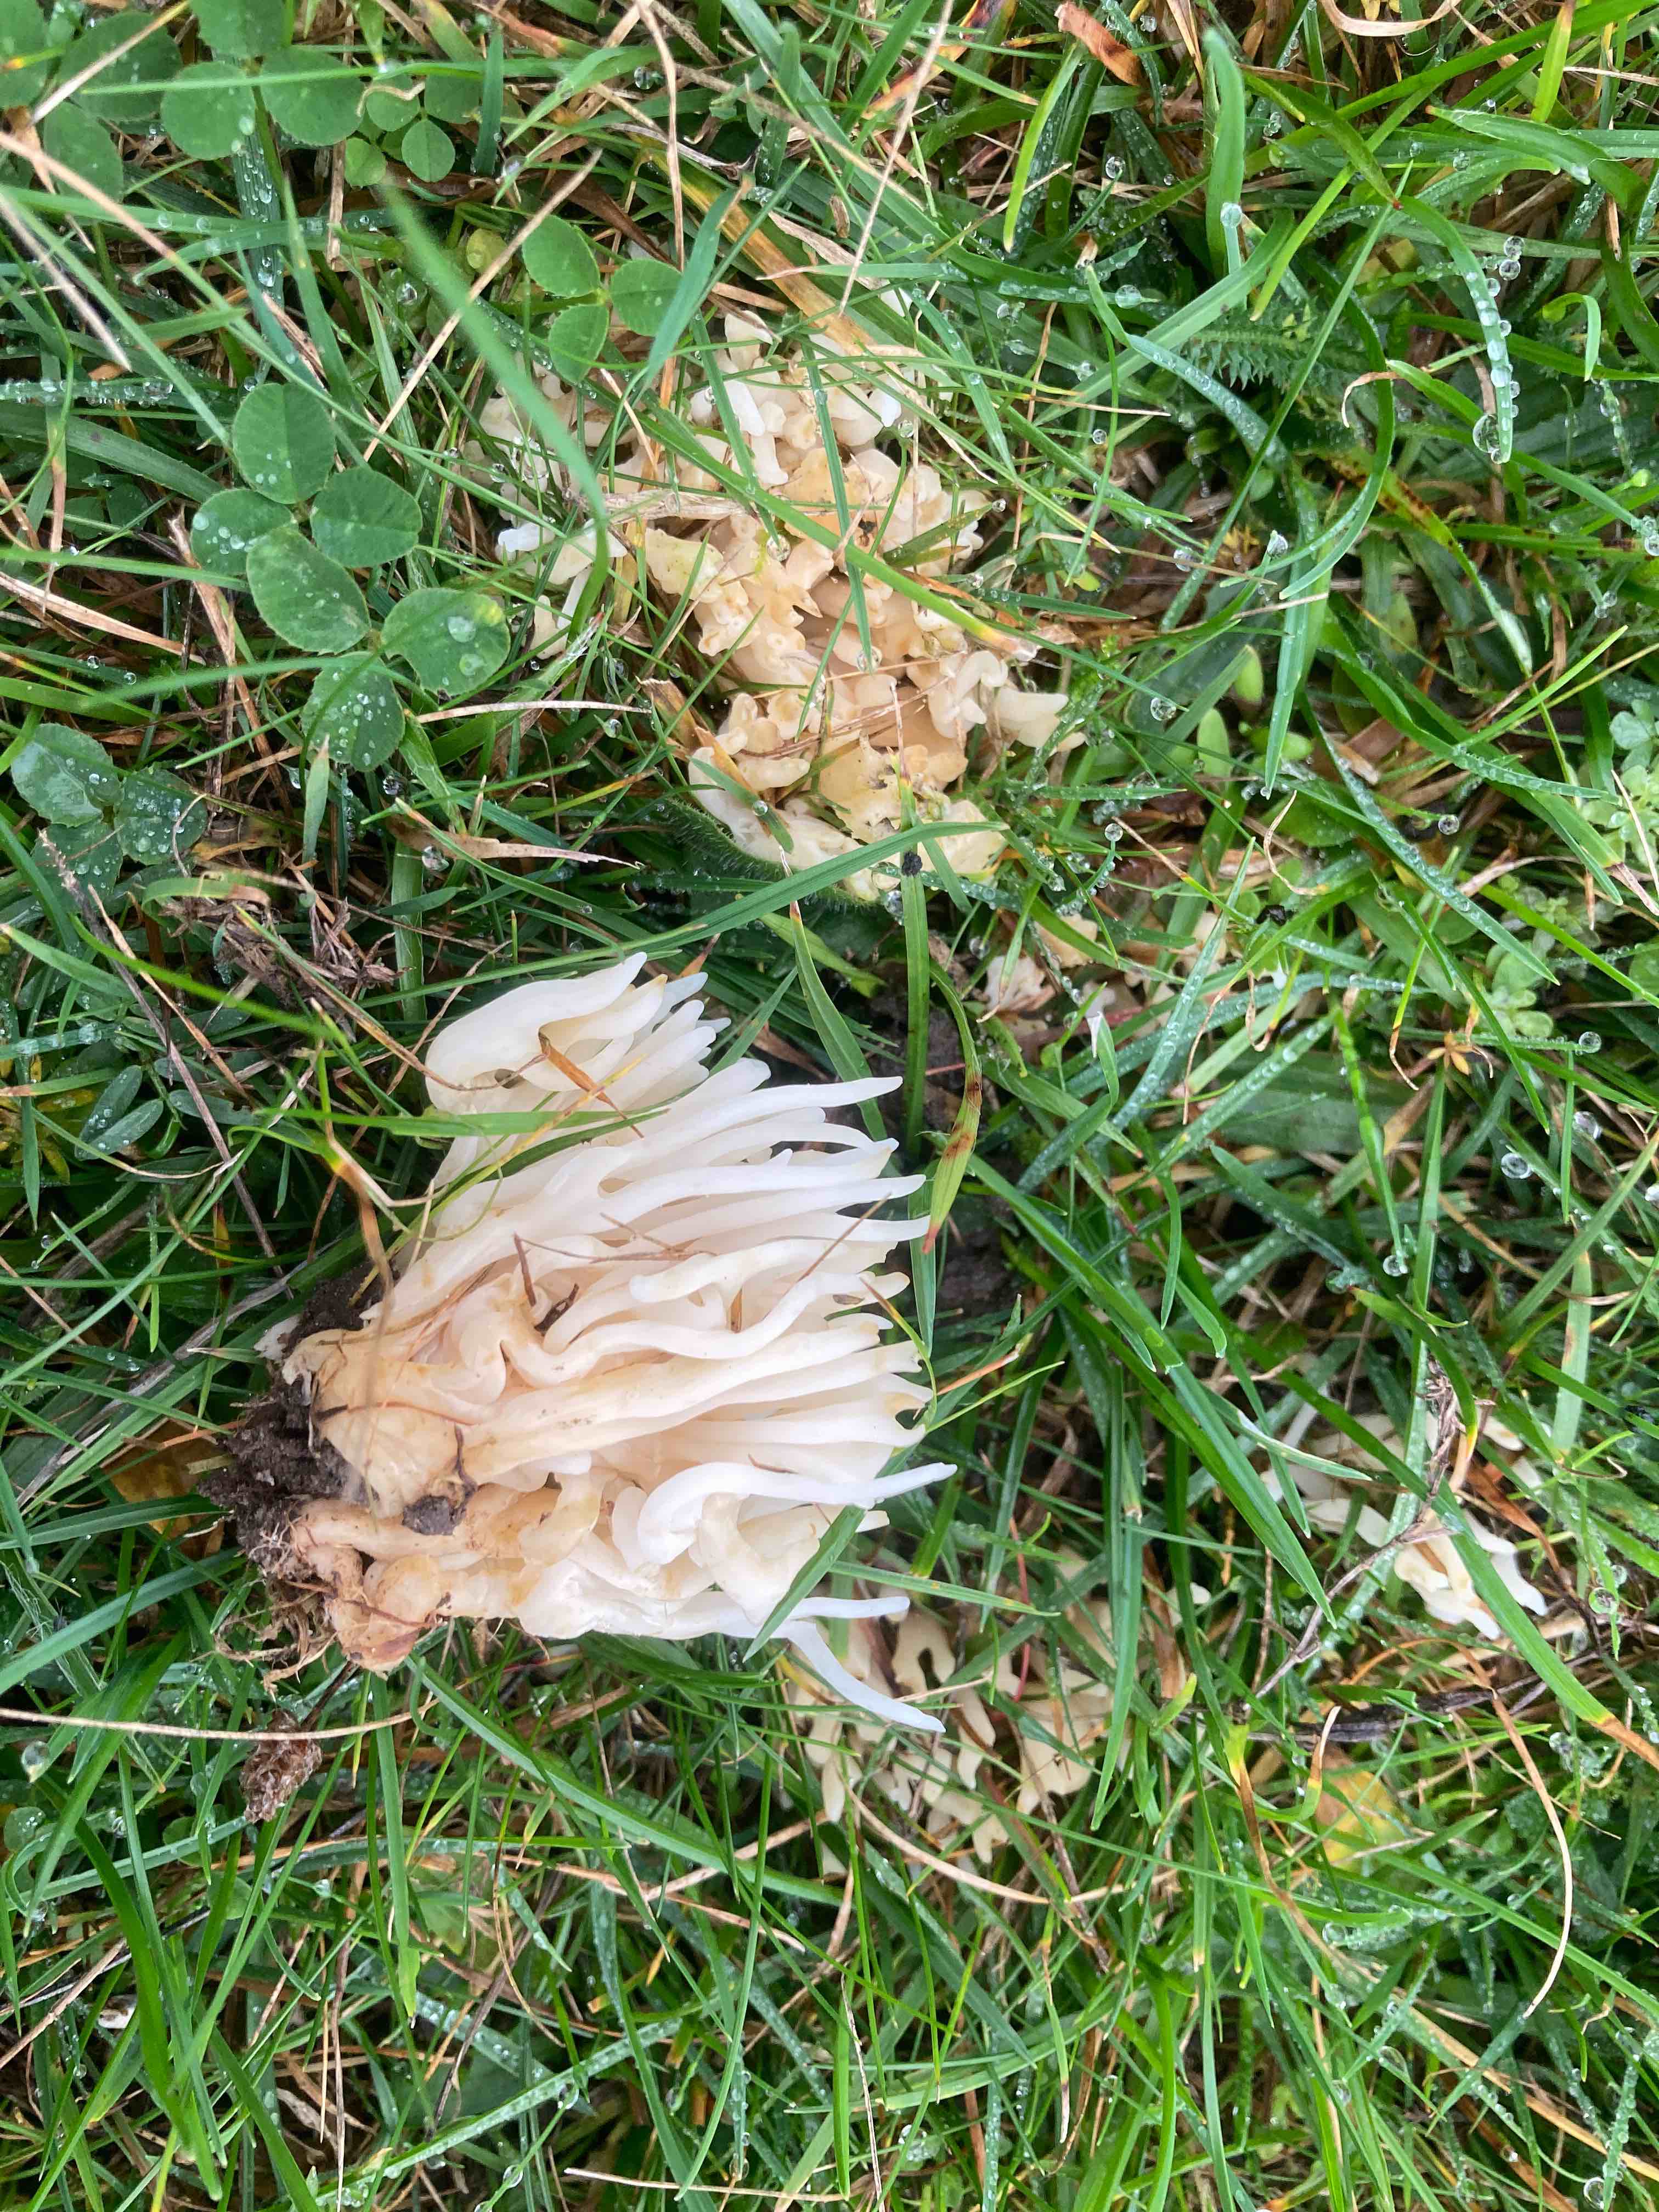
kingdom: Fungi
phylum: Basidiomycota
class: Agaricomycetes
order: Agaricales
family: Clavariaceae
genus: Ramariopsis
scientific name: Ramariopsis robusta
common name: tykgrenet køllesvamp
